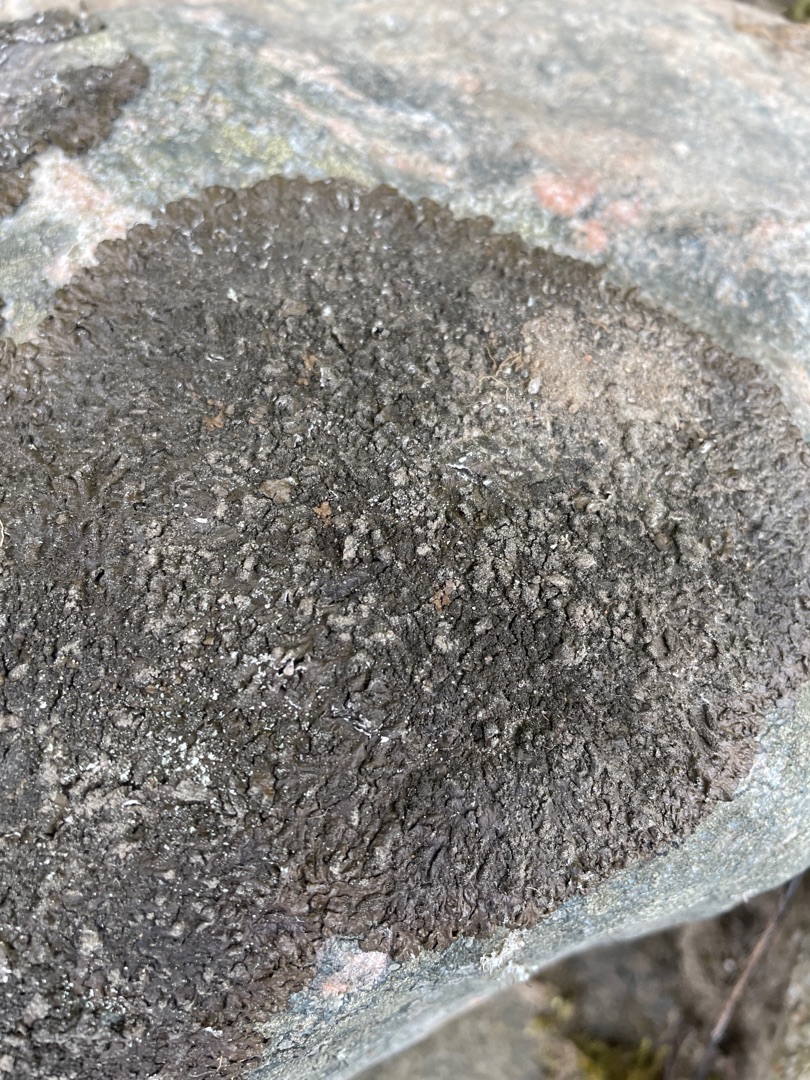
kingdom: Fungi
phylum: Ascomycota
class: Lecanoromycetes
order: Lecanorales
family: Parmeliaceae
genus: Melanelixia
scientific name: Melanelixia
